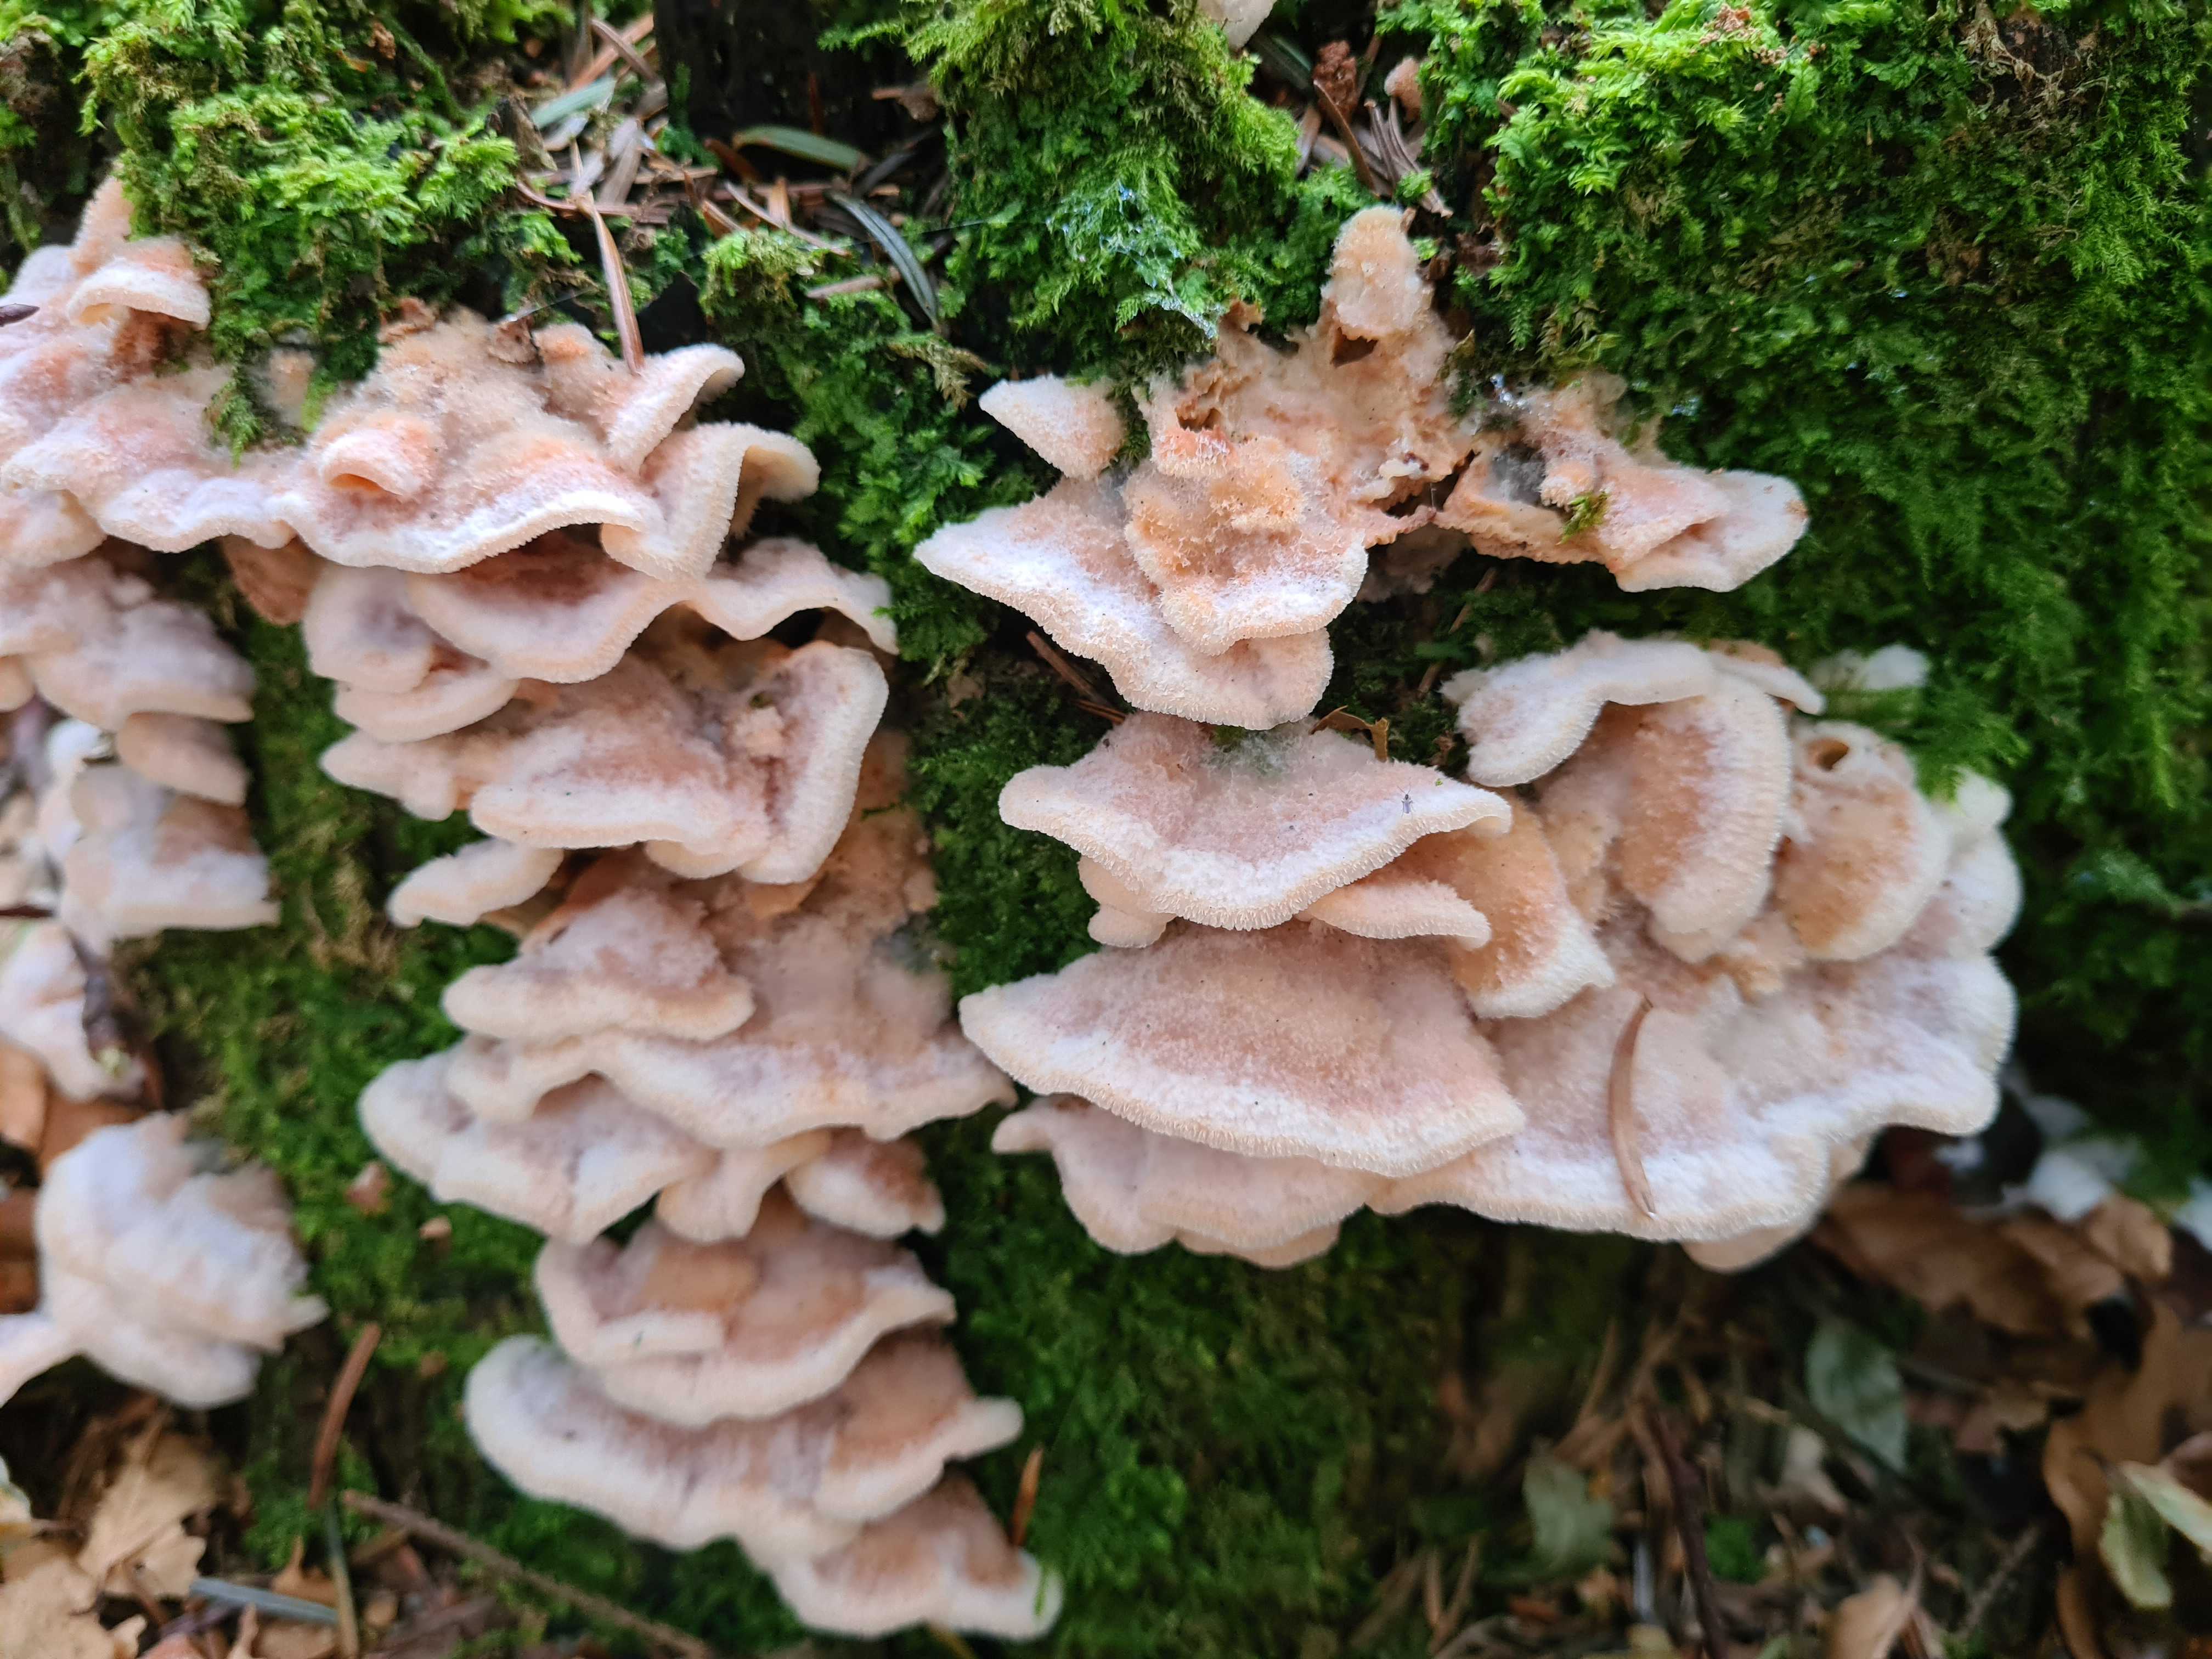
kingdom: Fungi
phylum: Basidiomycota
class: Agaricomycetes
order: Polyporales
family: Meruliaceae
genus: Phlebia
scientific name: Phlebia tremellosa
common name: bævrende åresvamp
